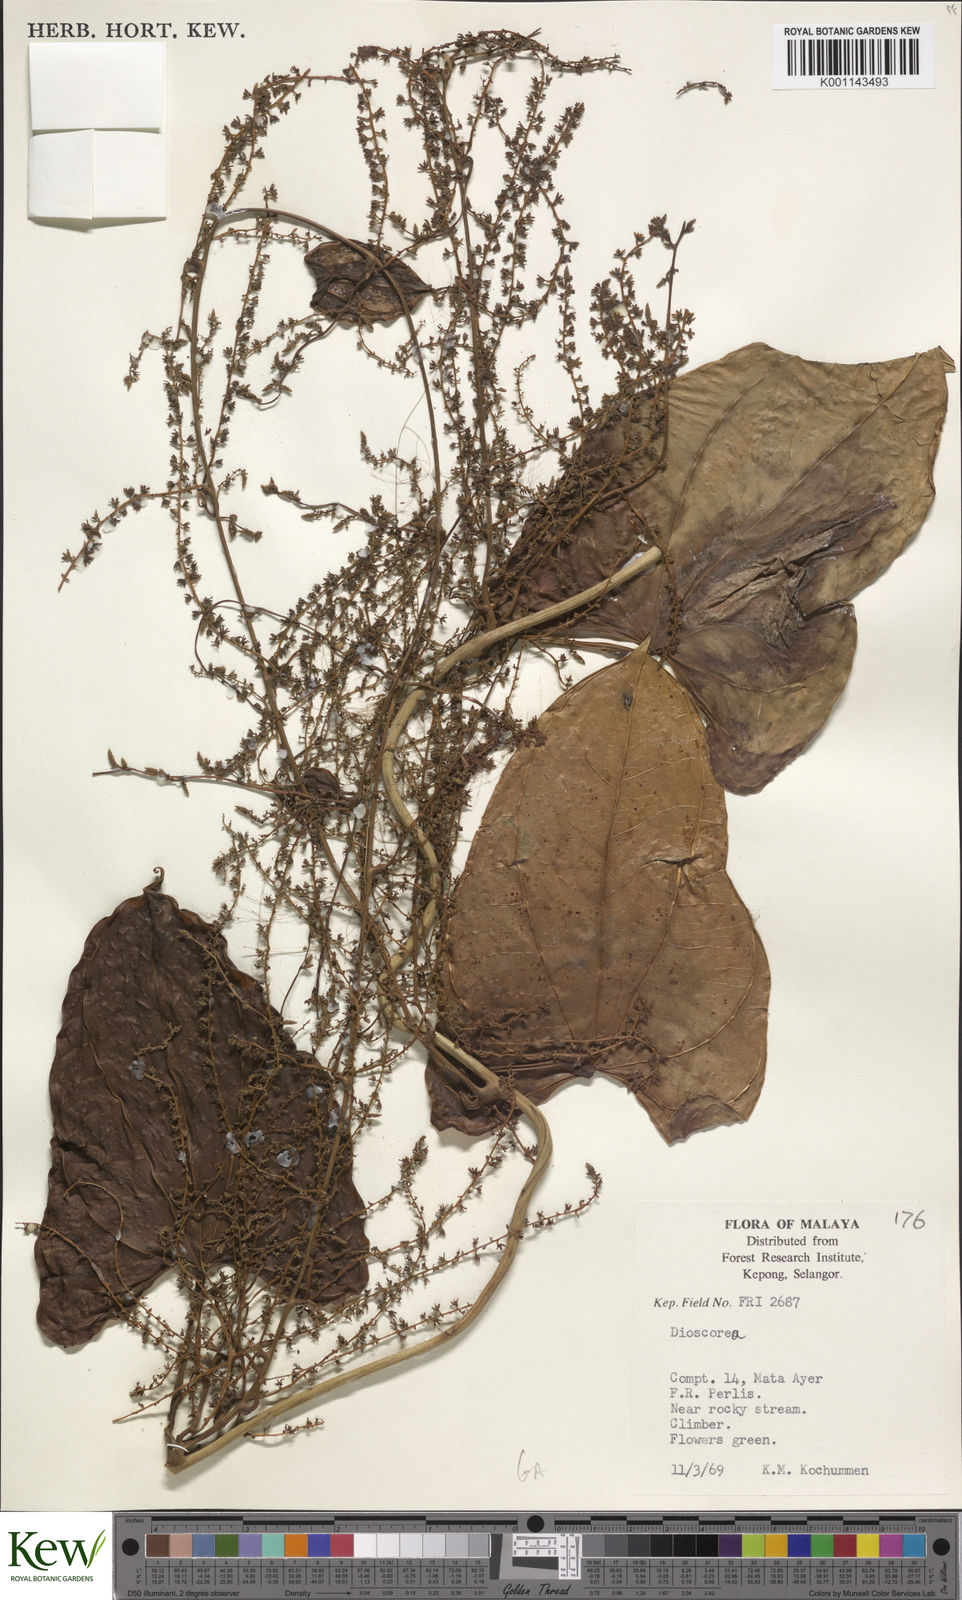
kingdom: Plantae
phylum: Tracheophyta
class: Liliopsida
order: Dioscoreales
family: Dioscoreaceae
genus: Dioscorea
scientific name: Dioscorea
